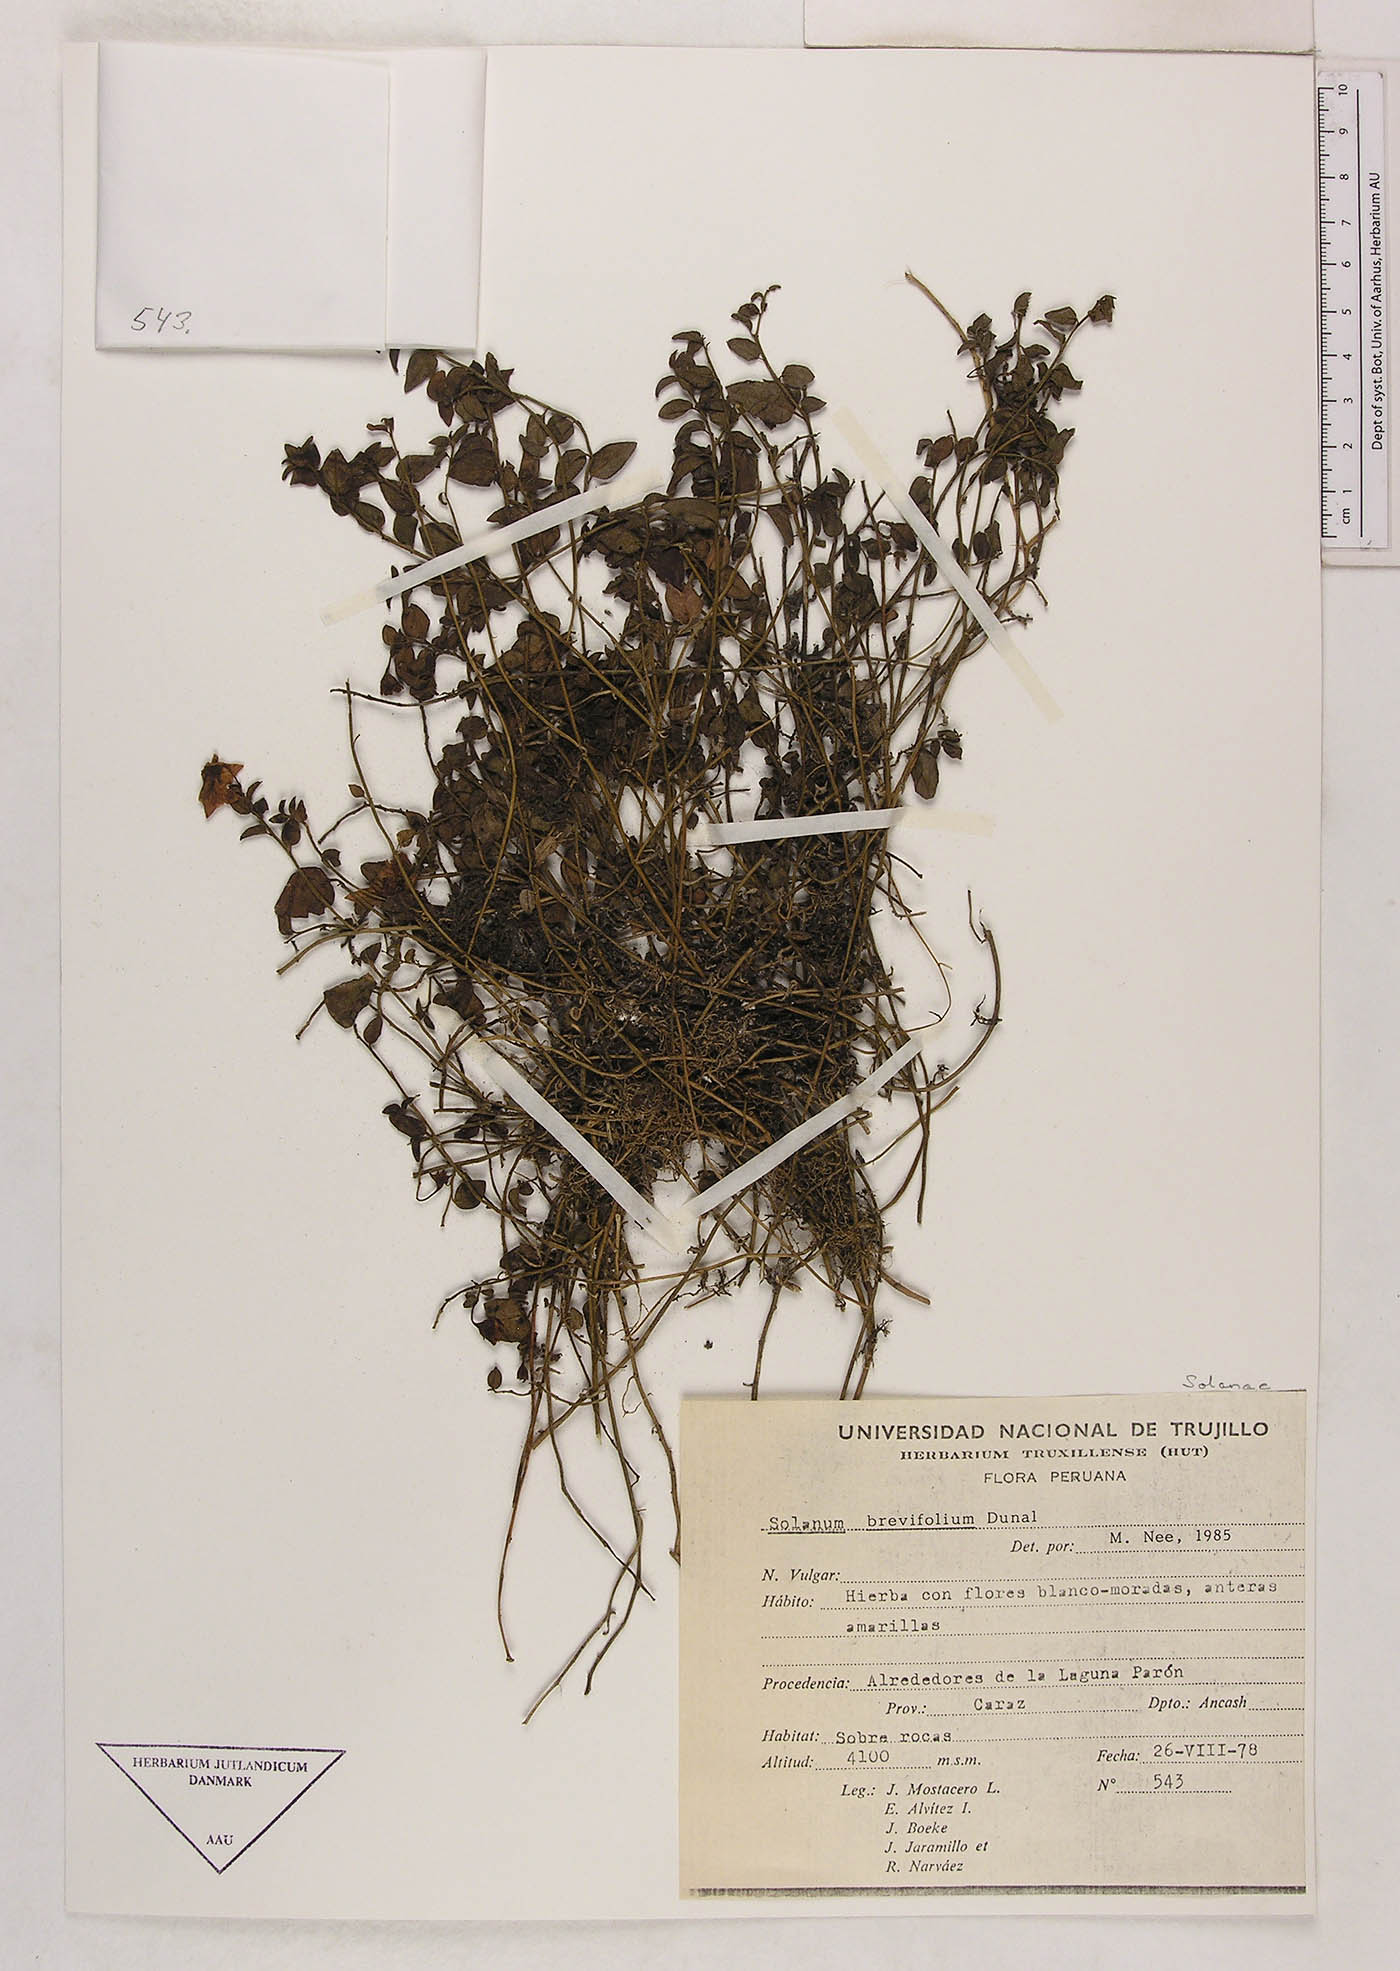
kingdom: Plantae
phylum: Tracheophyta
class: Magnoliopsida
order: Solanales
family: Solanaceae
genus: Solanum
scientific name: Solanum brevifolium
